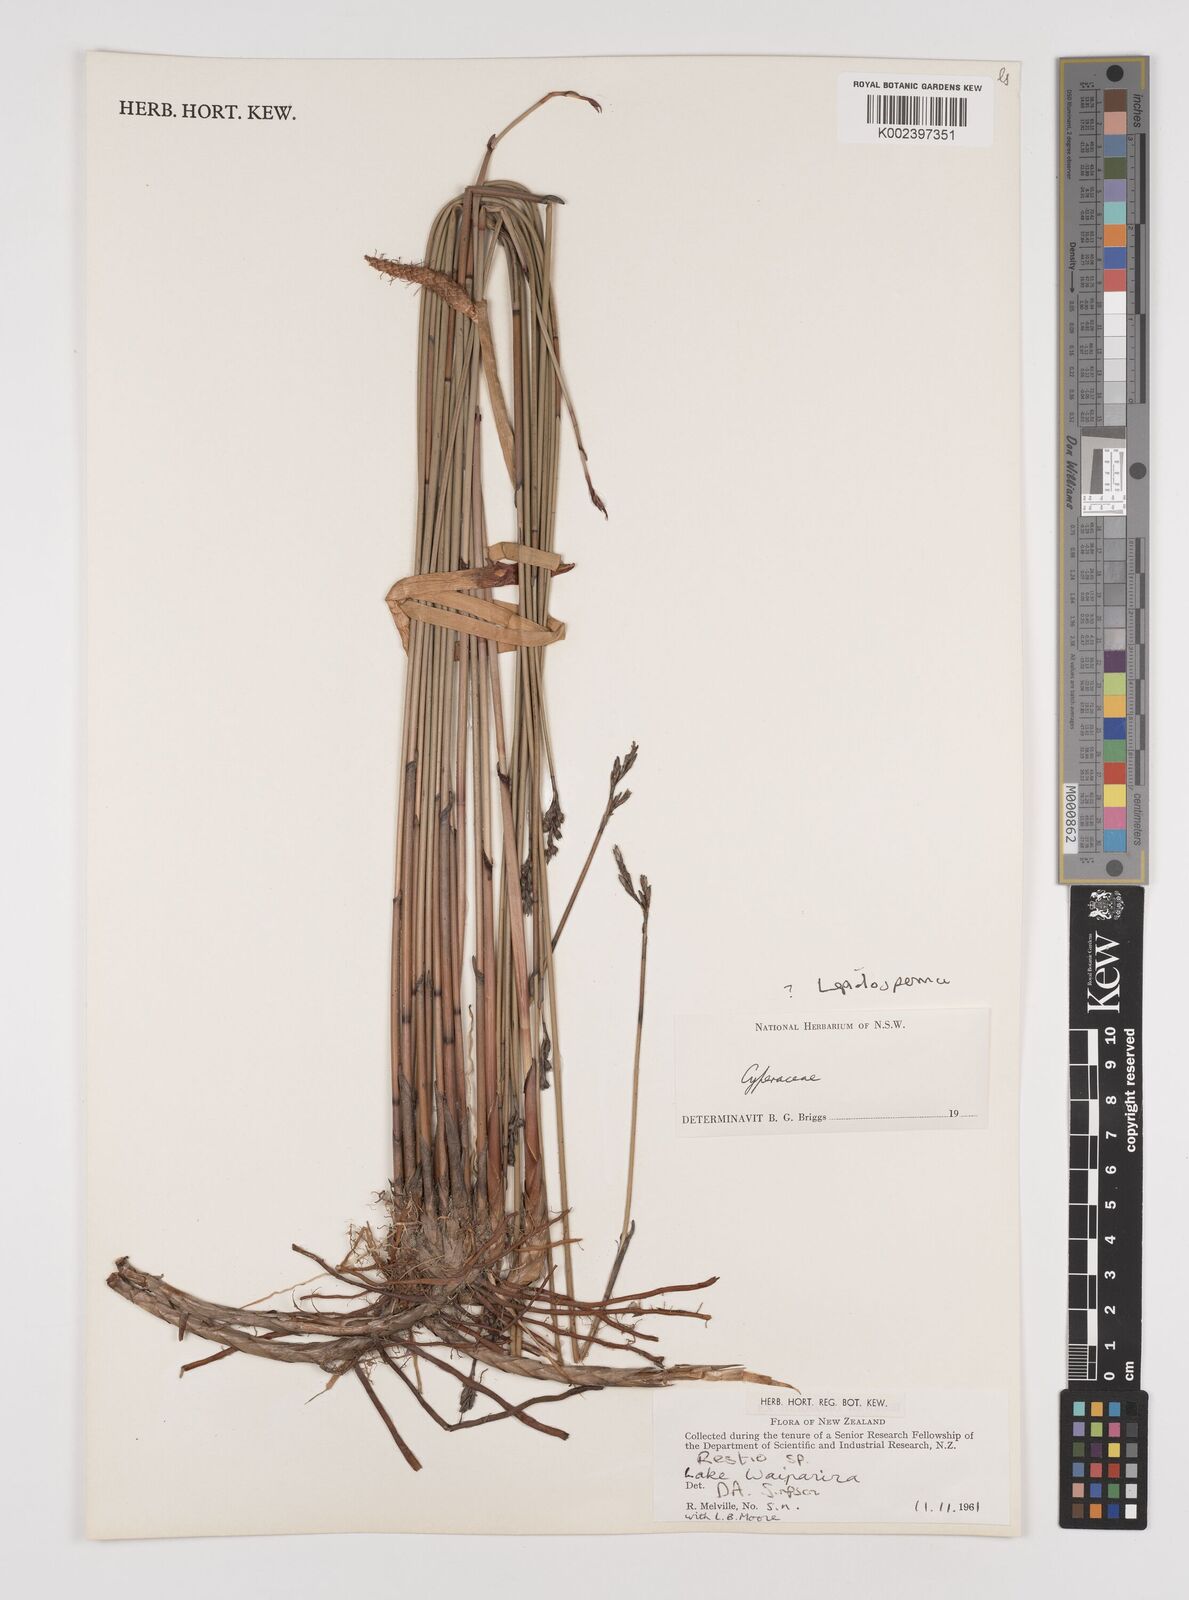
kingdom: Plantae
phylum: Tracheophyta
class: Liliopsida
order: Poales
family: Cyperaceae
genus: Lepidosperma
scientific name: Lepidosperma
